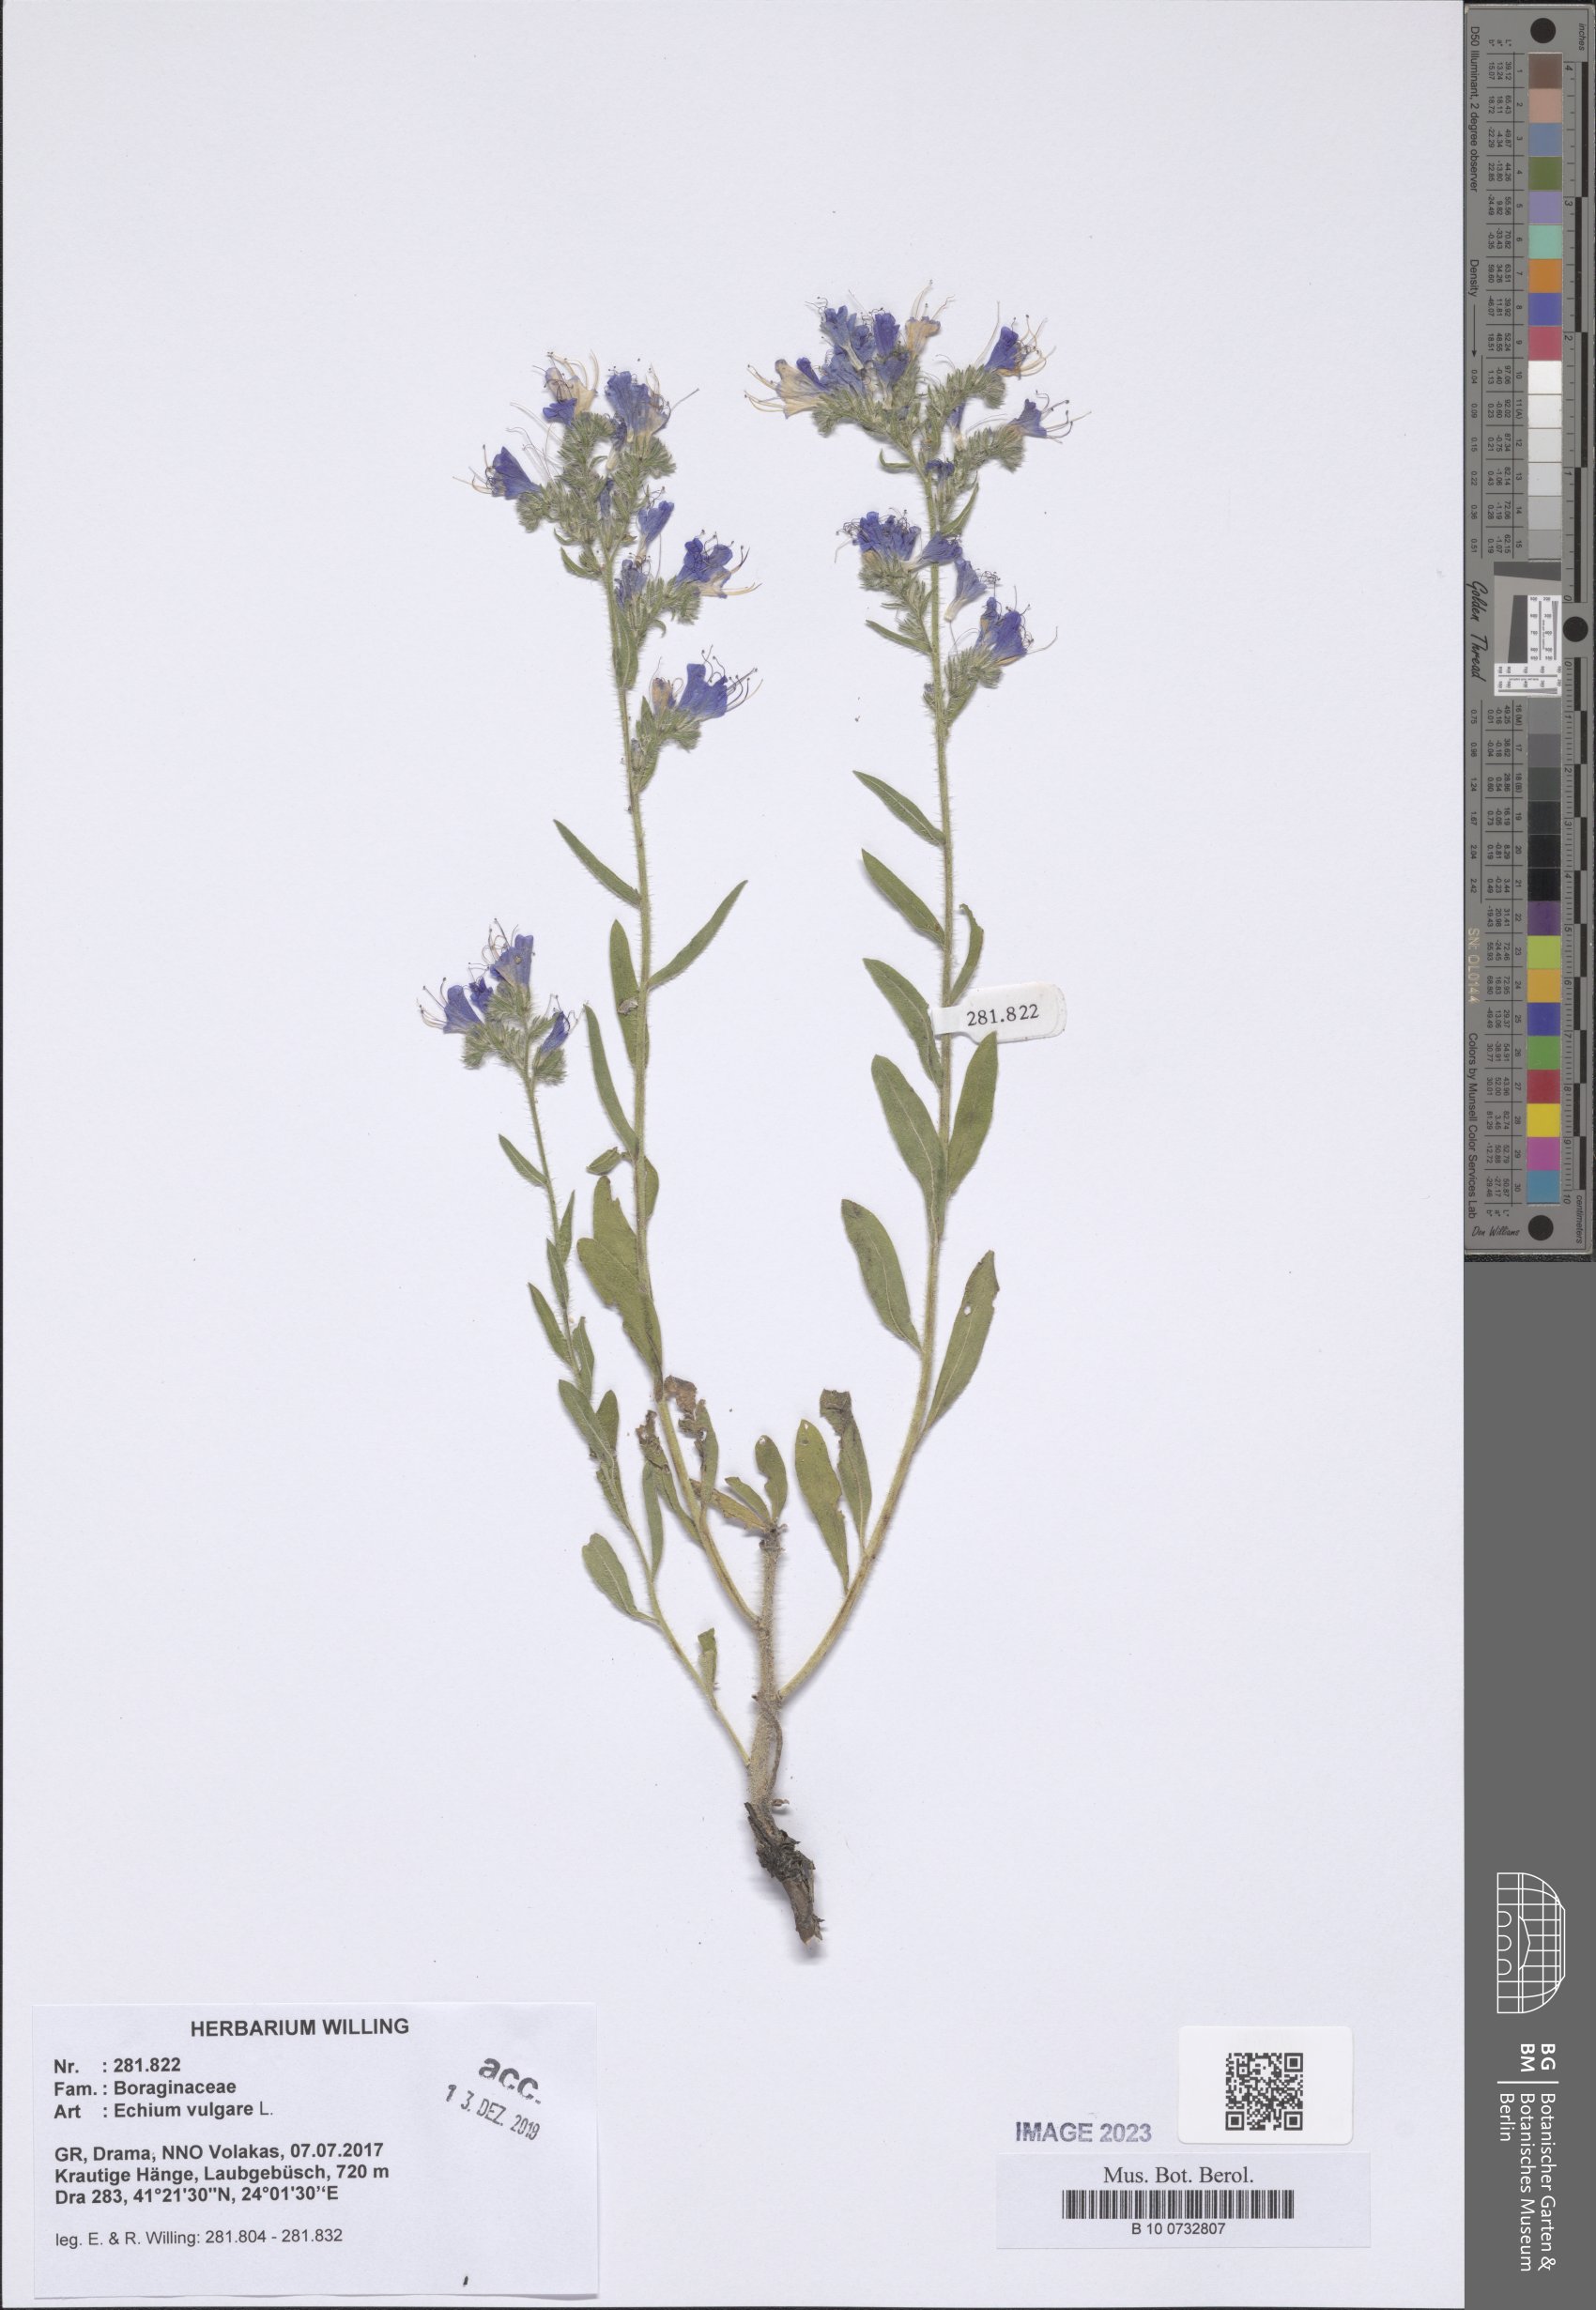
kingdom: Plantae
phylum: Tracheophyta
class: Magnoliopsida
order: Boraginales
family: Boraginaceae
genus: Echium
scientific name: Echium vulgare
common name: Common viper's bugloss
